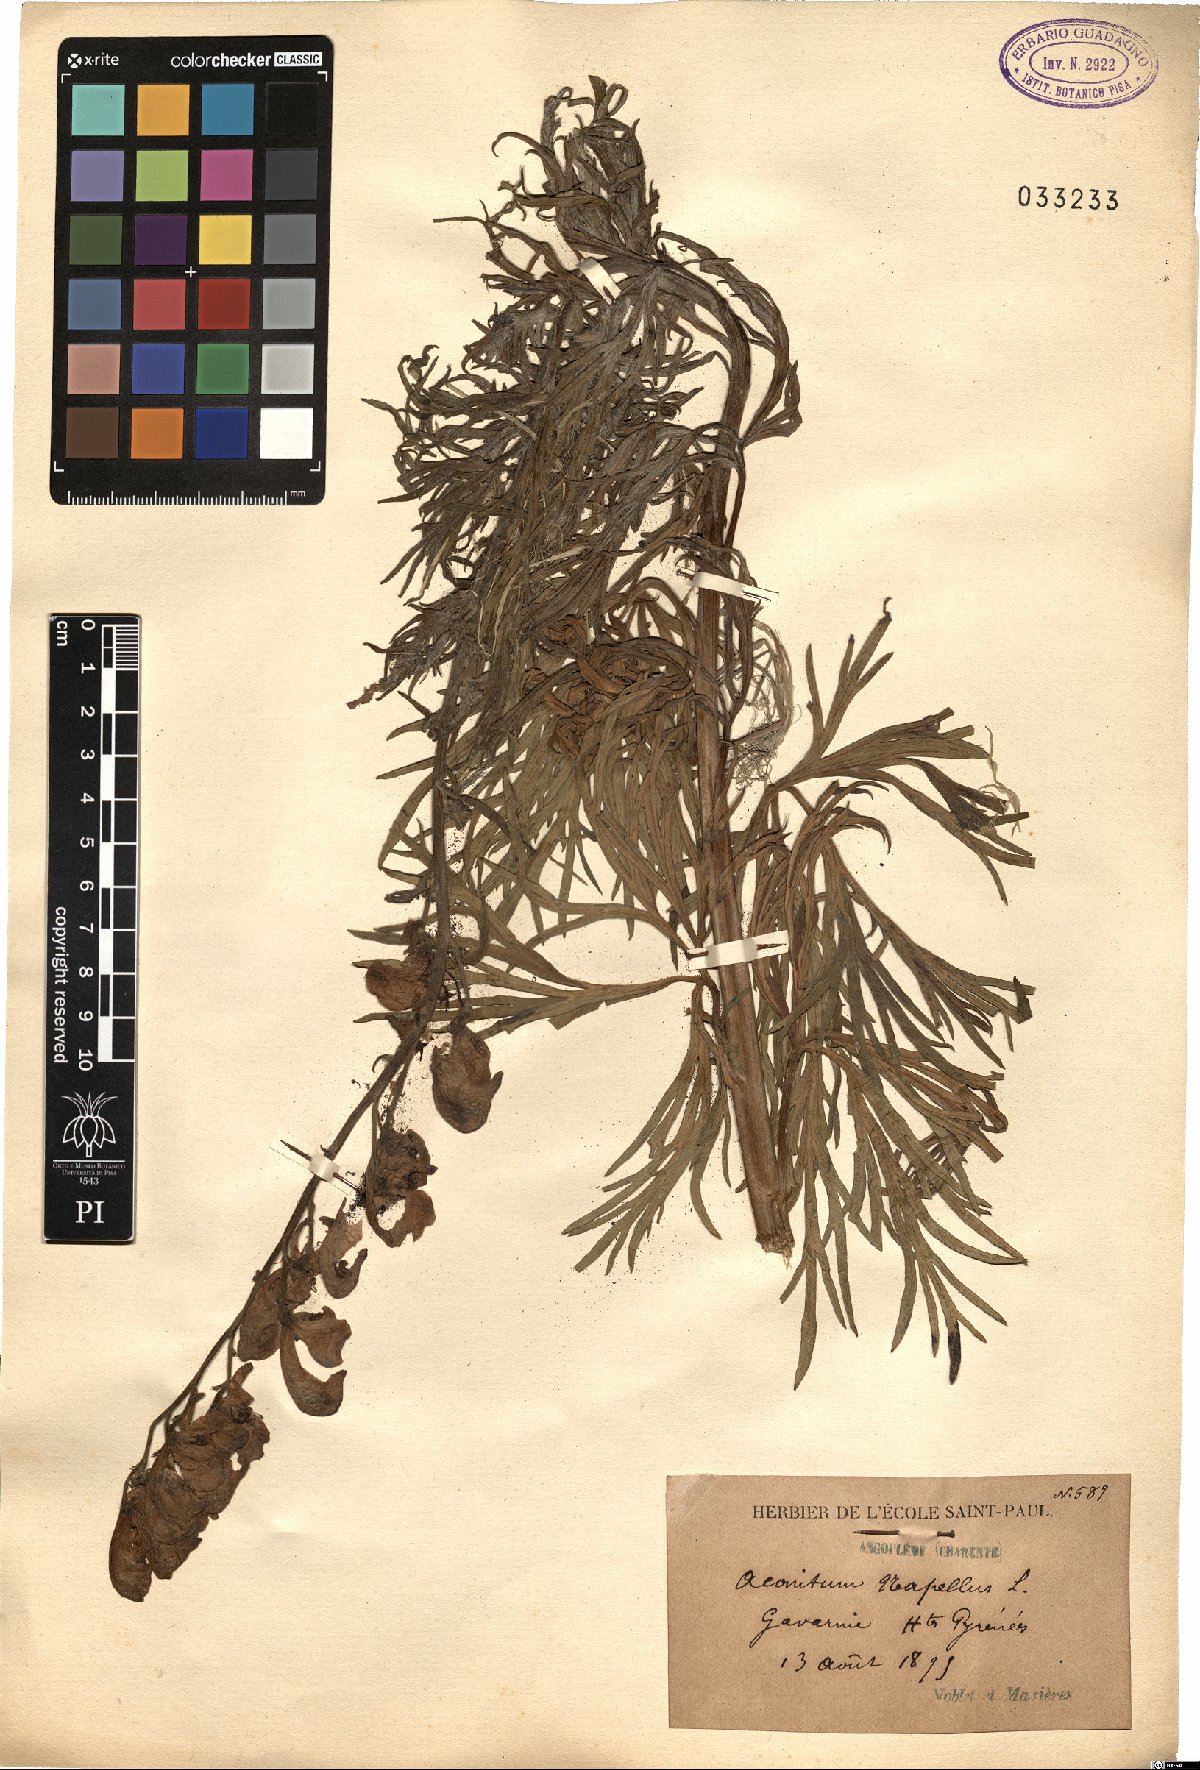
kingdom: Plantae
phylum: Tracheophyta
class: Magnoliopsida
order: Ranunculales
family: Ranunculaceae
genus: Aconitum
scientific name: Aconitum napellus
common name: Garden monkshood
